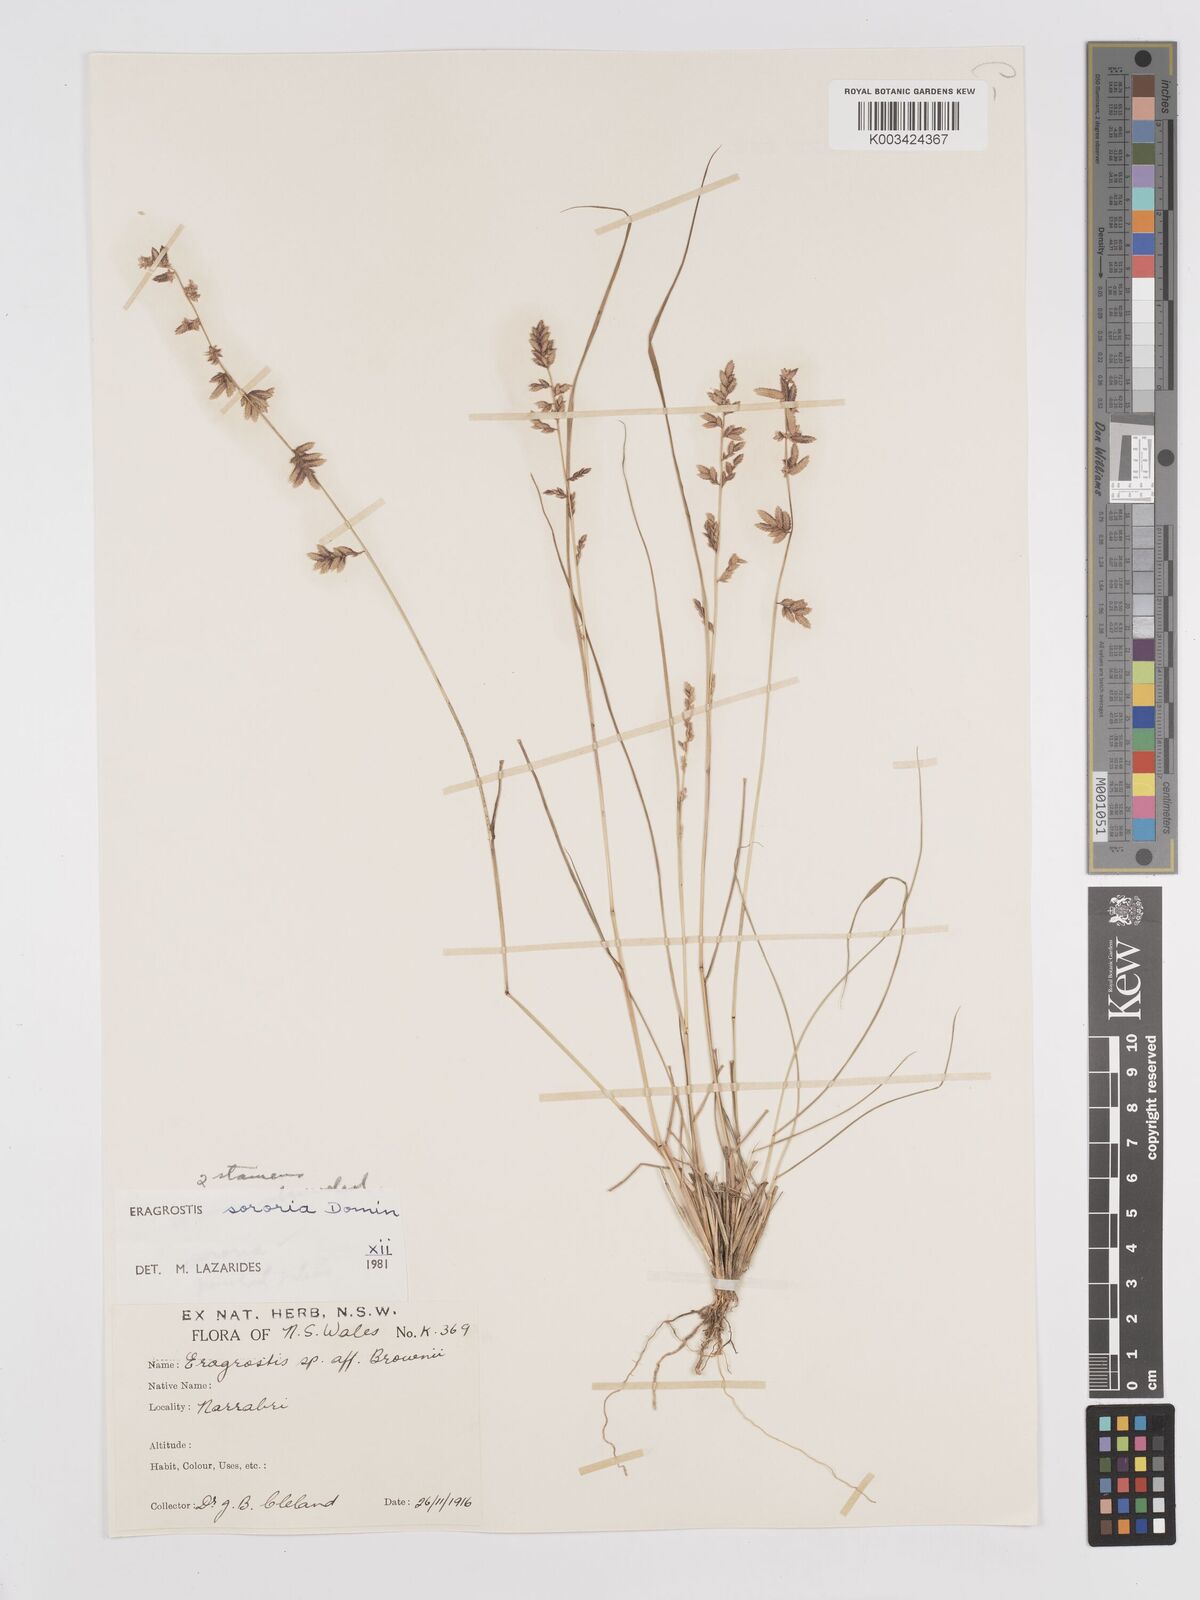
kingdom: Plantae
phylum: Tracheophyta
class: Liliopsida
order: Poales
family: Poaceae
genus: Eragrostis
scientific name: Eragrostis sororia
